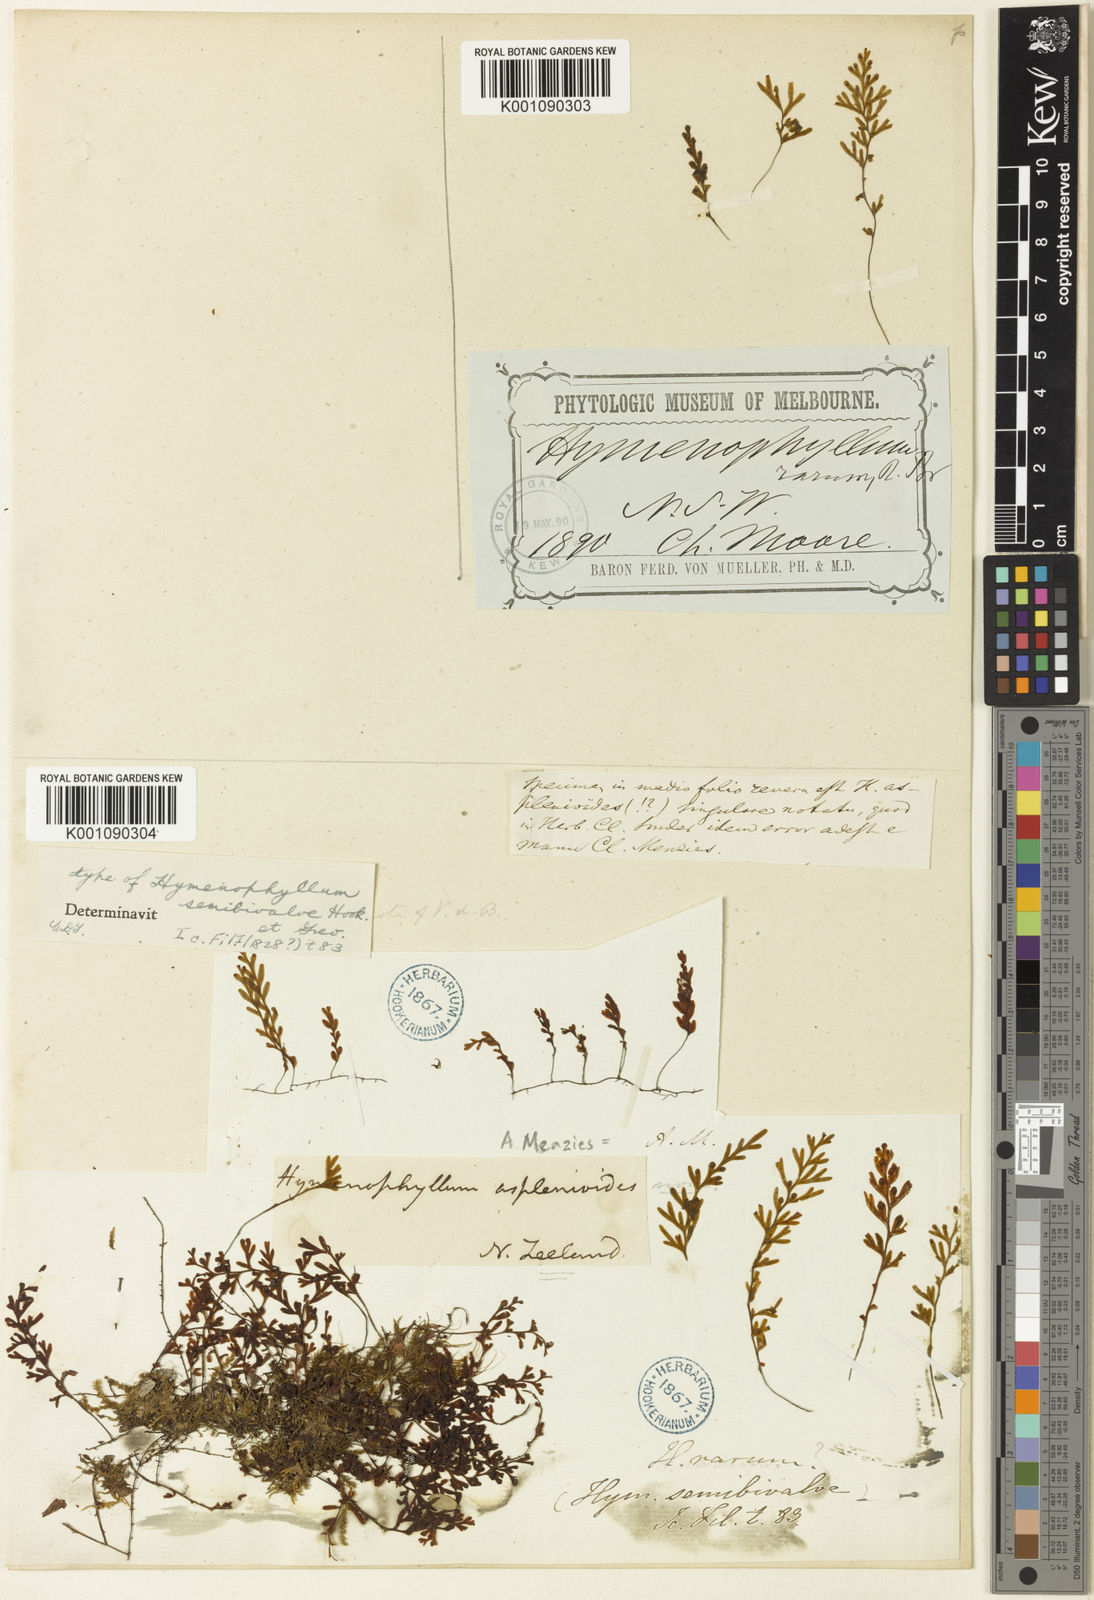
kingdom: Plantae
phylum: Tracheophyta
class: Polypodiopsida
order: Hymenophyllales
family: Hymenophyllaceae
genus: Hymenophyllum
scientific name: Hymenophyllum rarum
